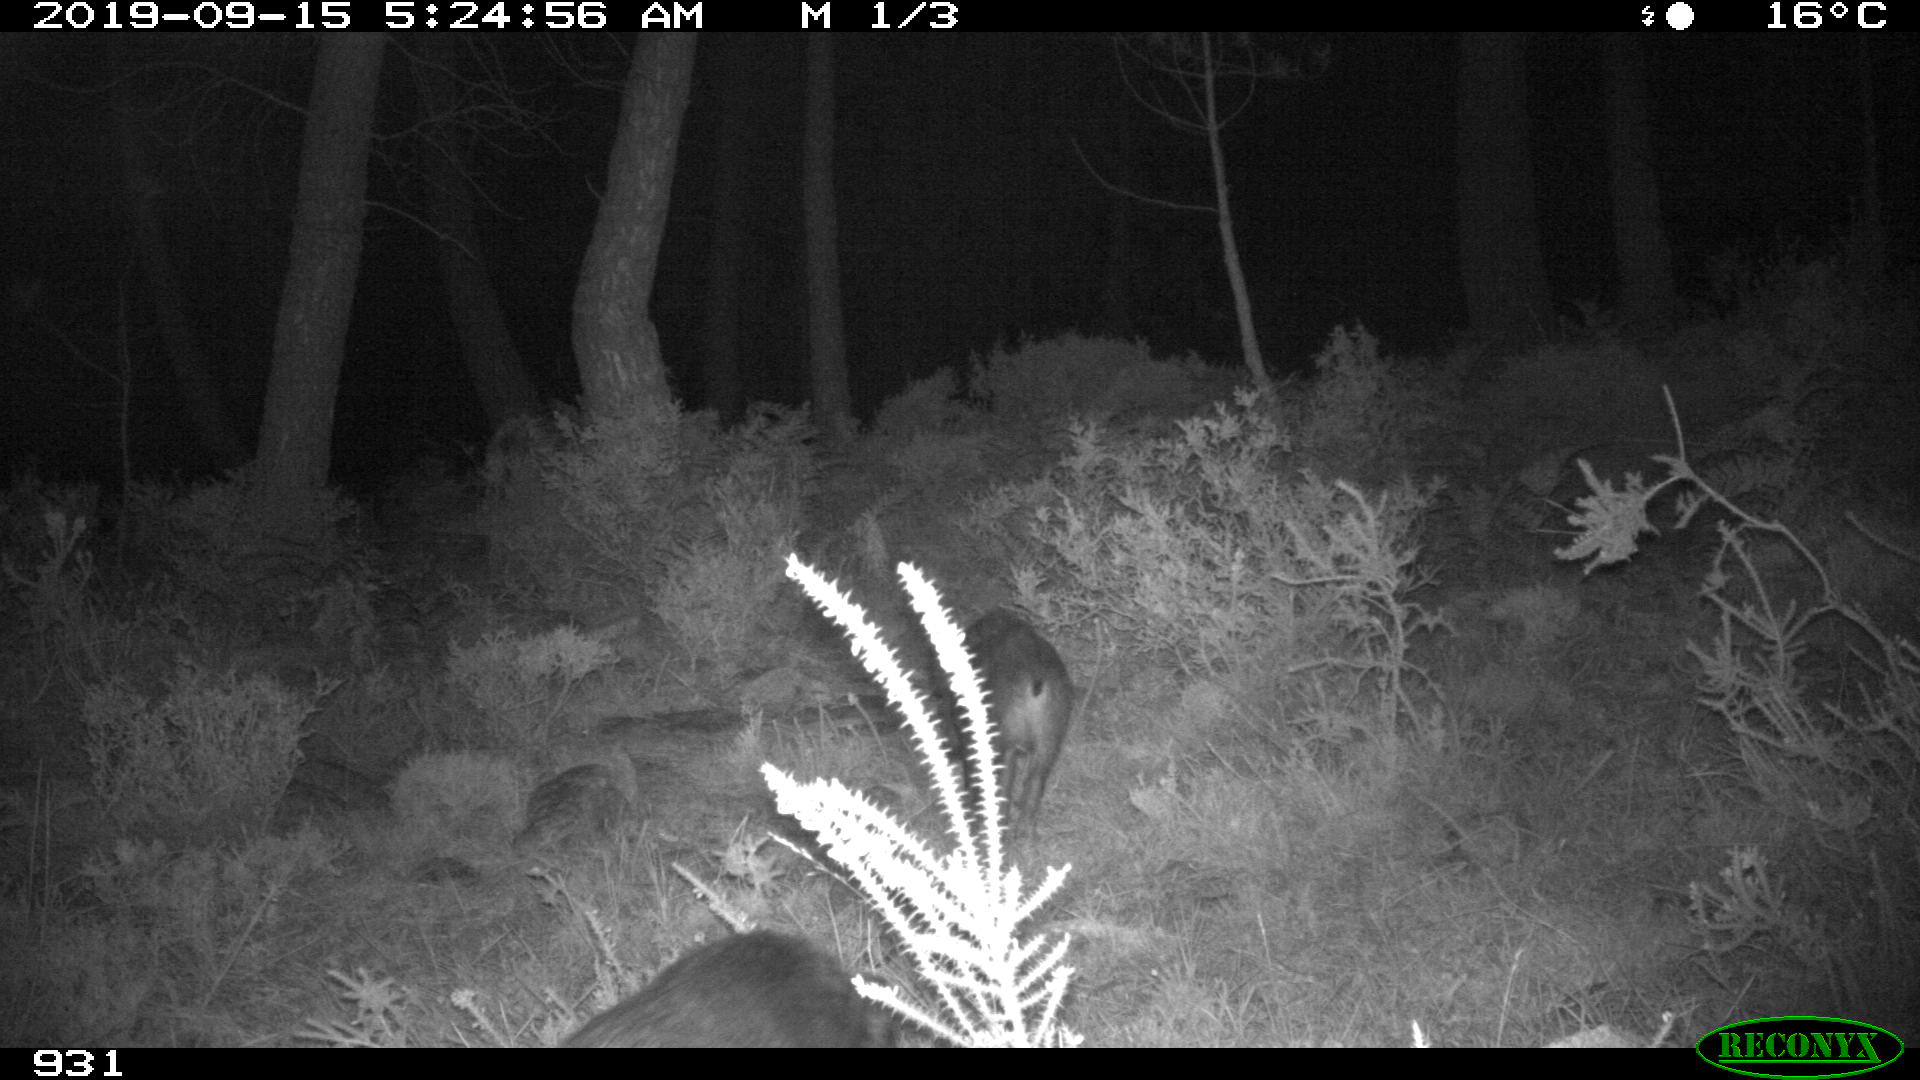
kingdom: Animalia
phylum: Chordata
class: Mammalia
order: Artiodactyla
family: Suidae
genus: Sus
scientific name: Sus scrofa
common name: Wild boar
